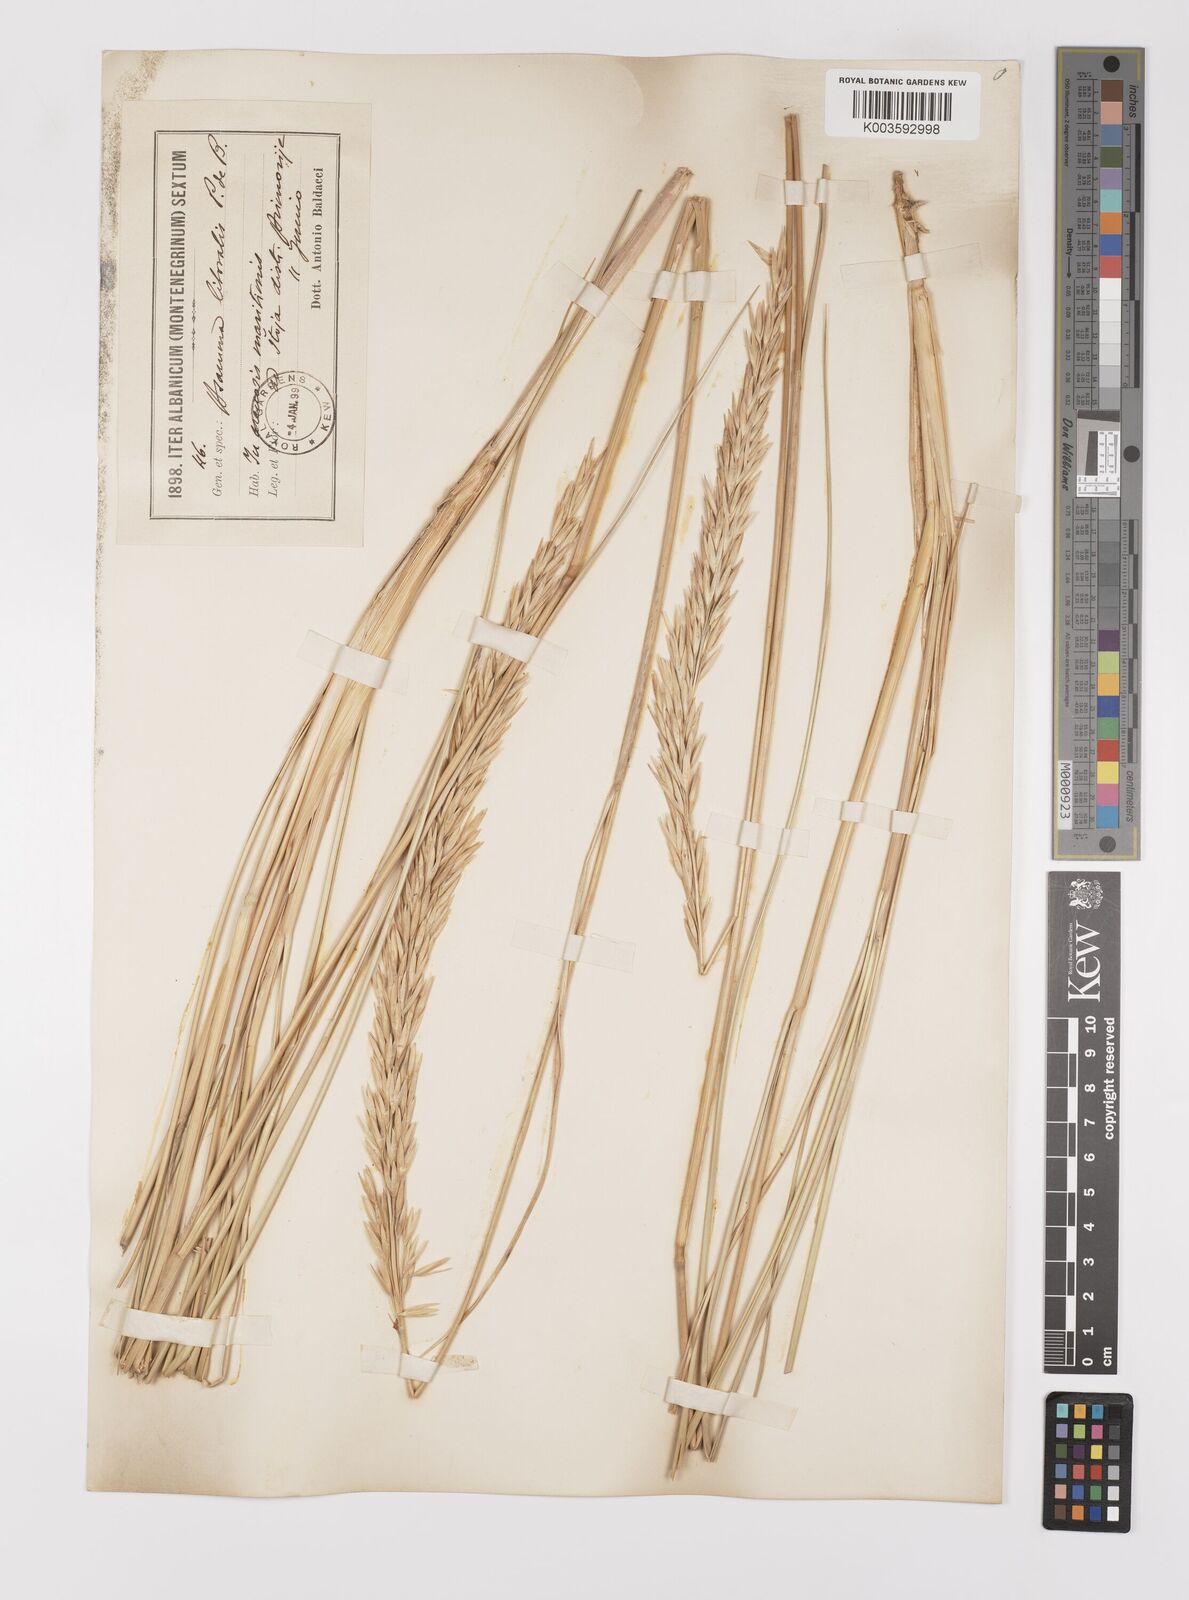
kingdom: Plantae
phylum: Tracheophyta
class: Liliopsida
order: Poales
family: Poaceae
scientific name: Poaceae
